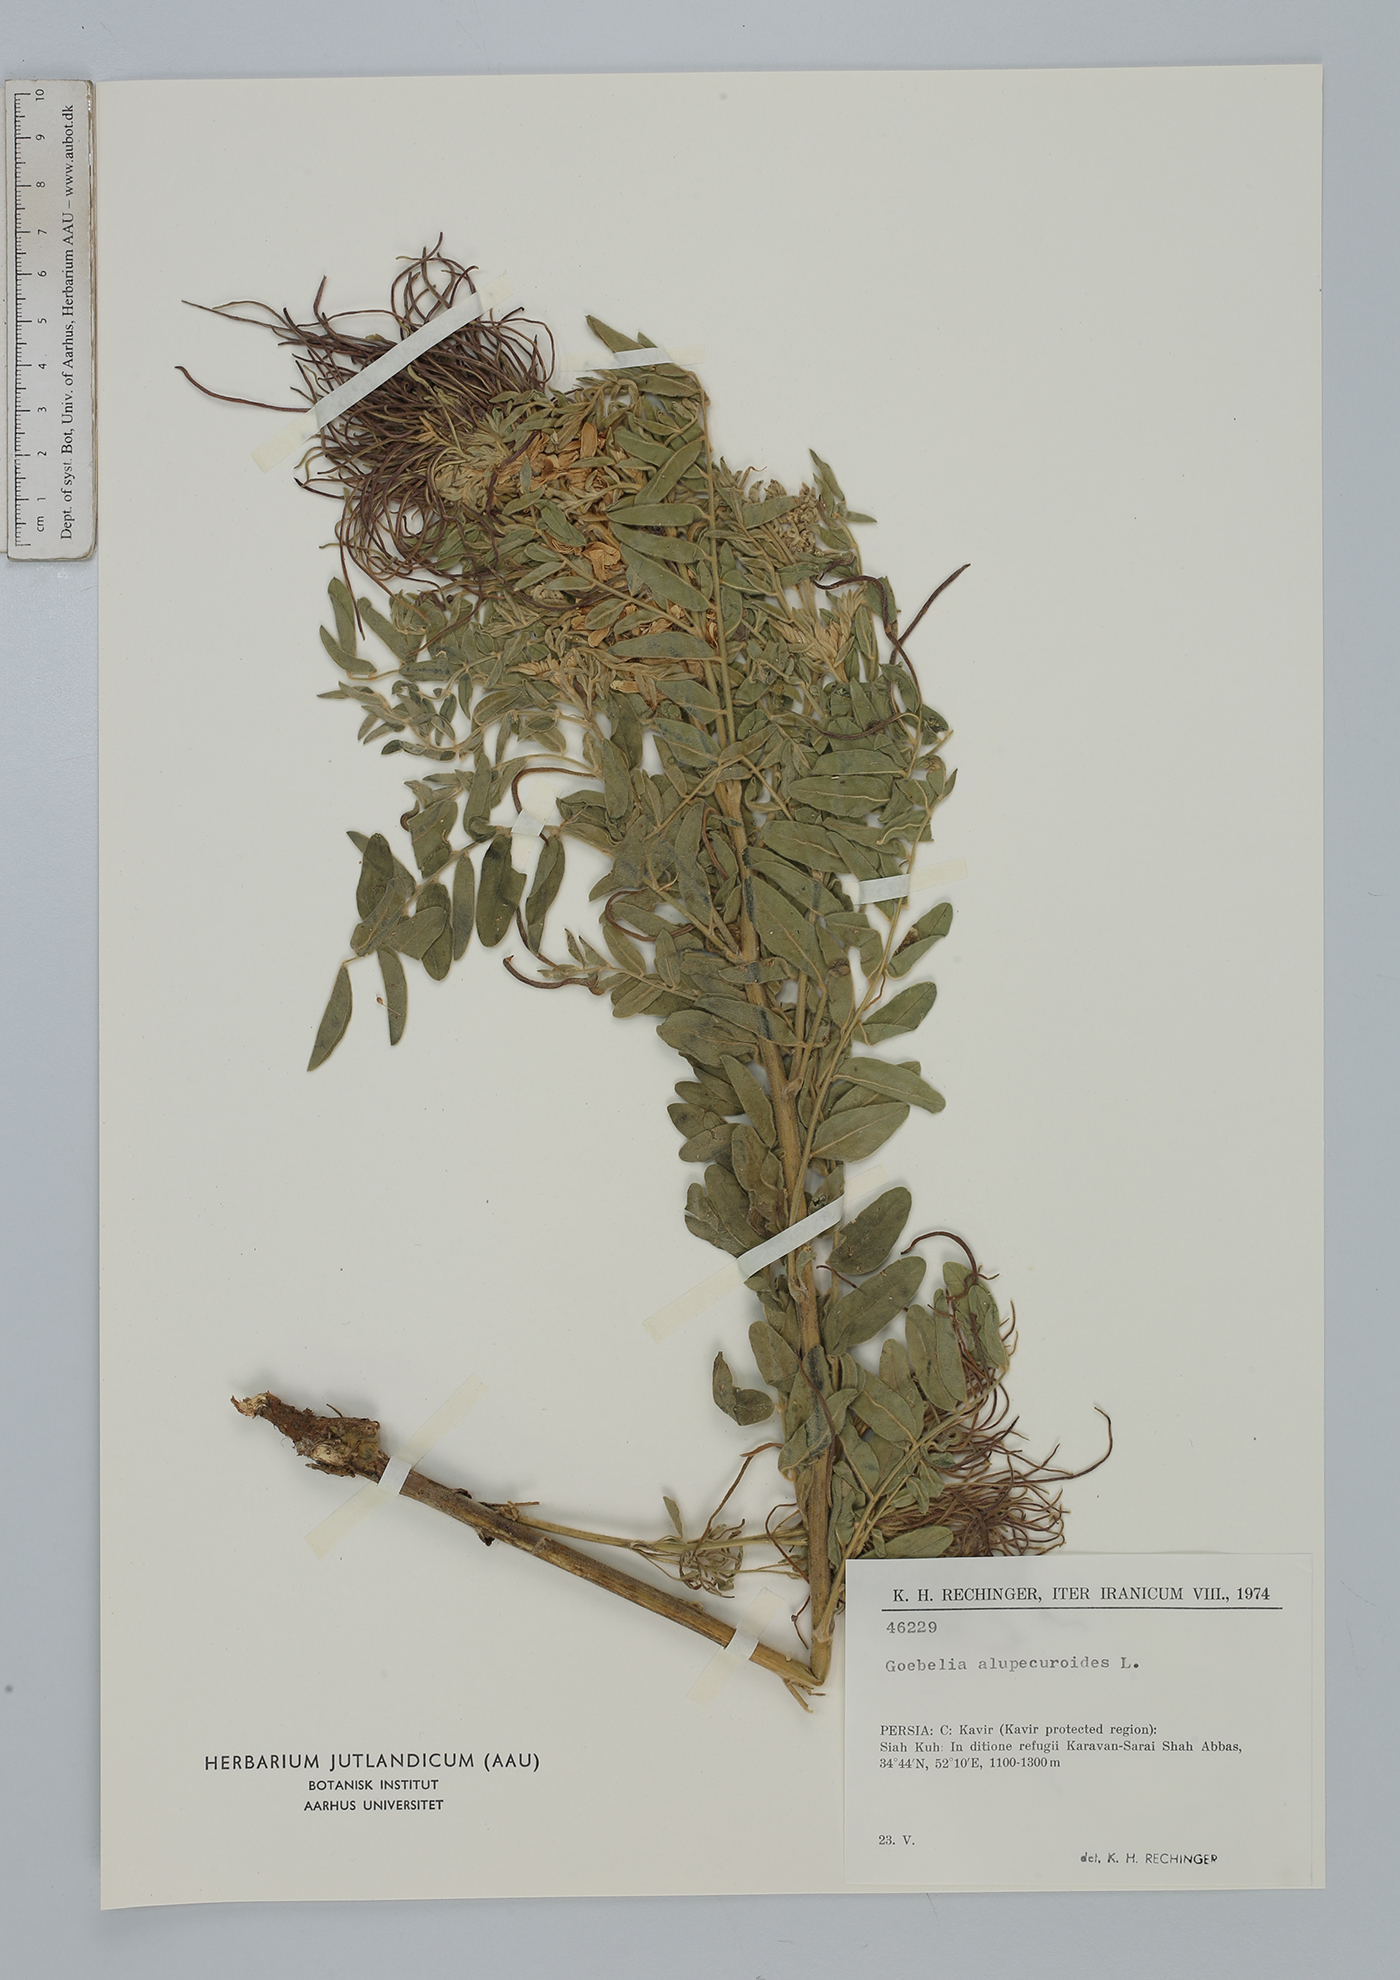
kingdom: Plantae
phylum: Tracheophyta
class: Magnoliopsida
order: Fabales
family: Fabaceae
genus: Sophora
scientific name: Sophora alopecuroides
